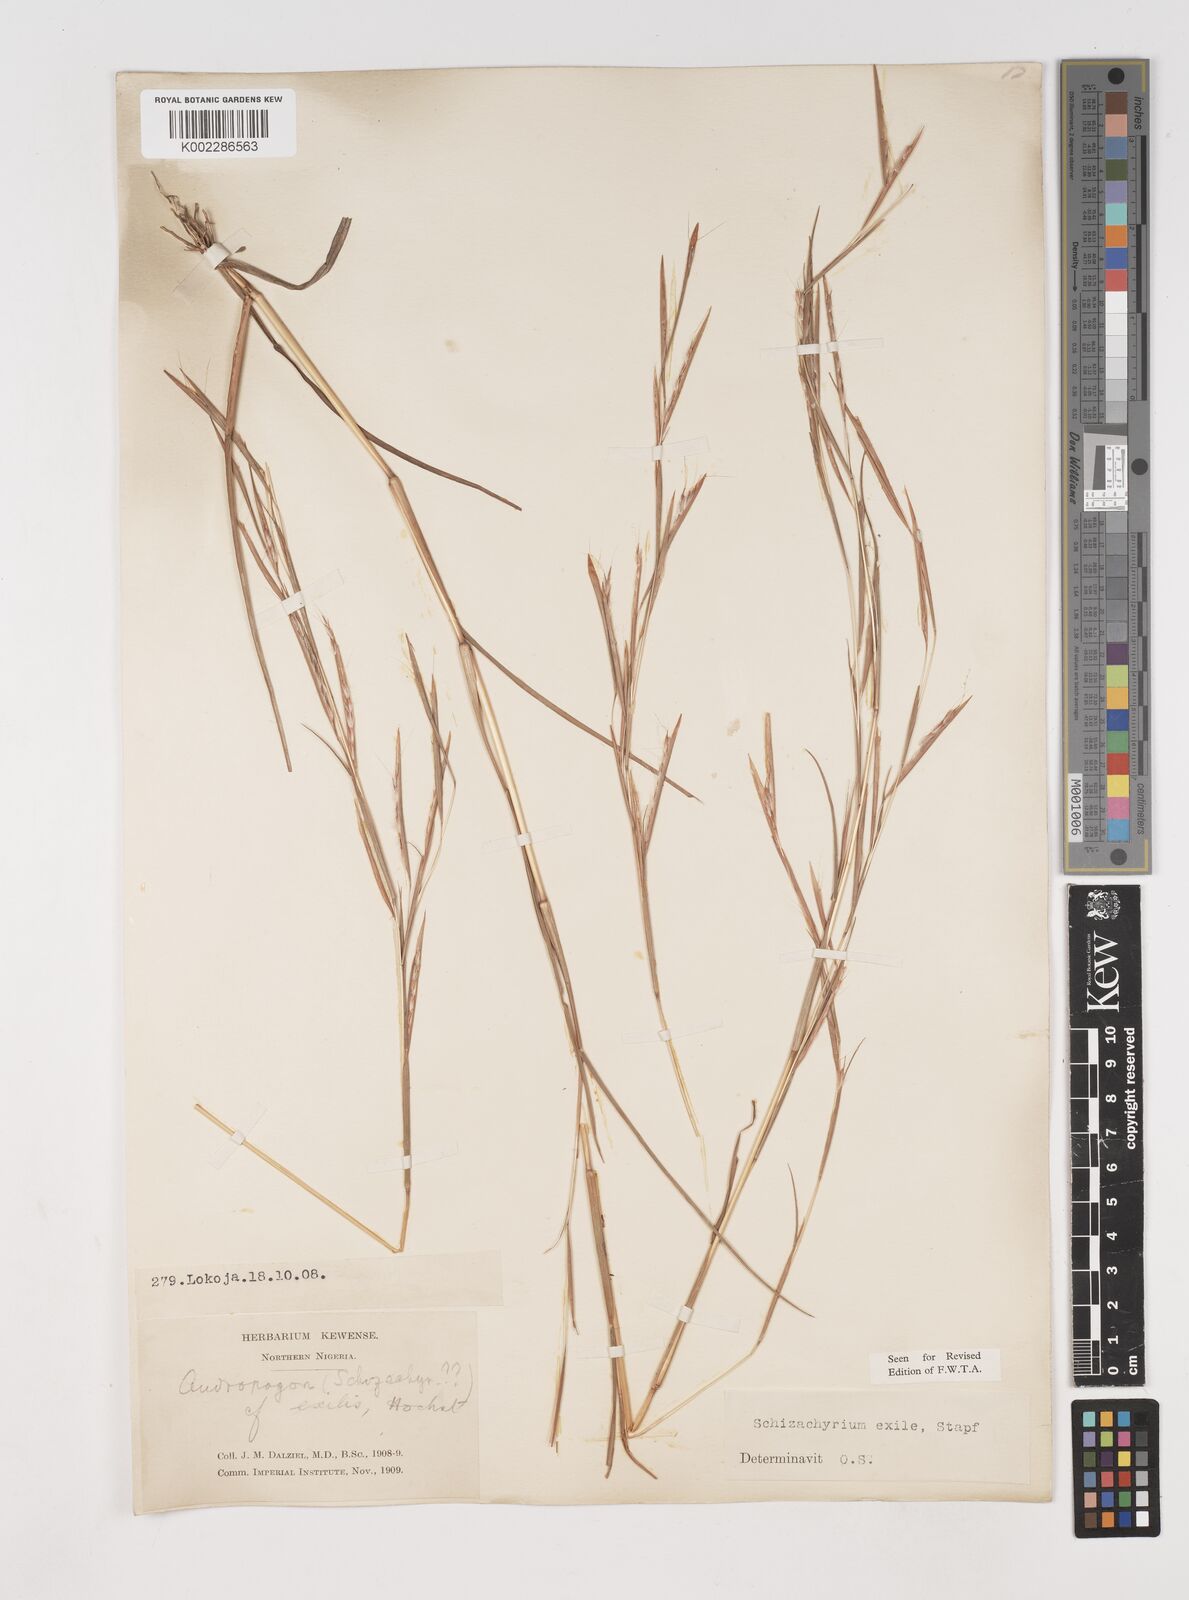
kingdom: Plantae
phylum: Tracheophyta
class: Liliopsida
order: Poales
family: Poaceae
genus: Schizachyrium
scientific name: Schizachyrium exile
